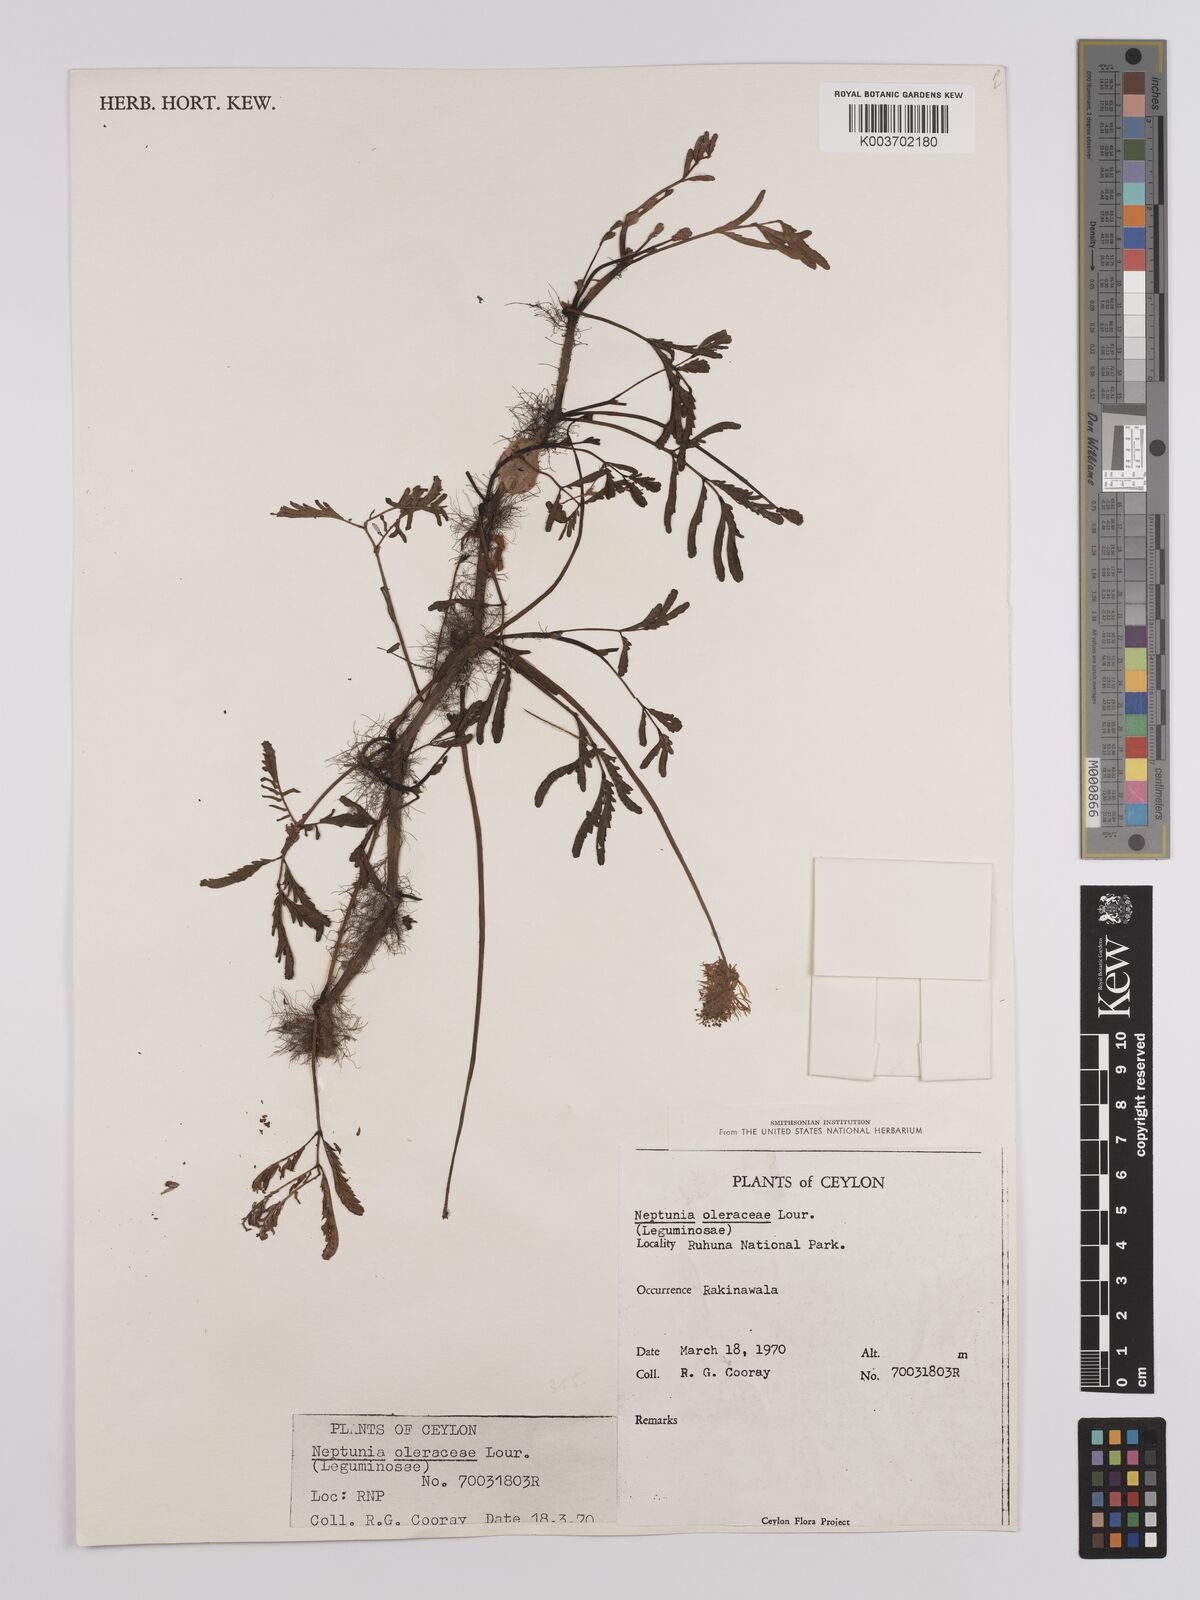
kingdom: Plantae
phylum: Tracheophyta
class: Magnoliopsida
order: Fabales
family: Fabaceae
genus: Neptunia
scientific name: Neptunia prostrata
